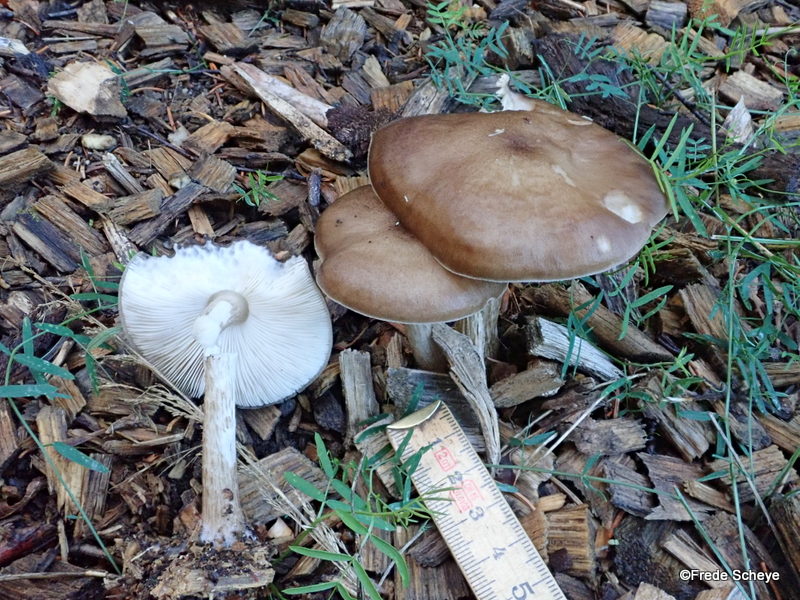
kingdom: Fungi
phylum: Basidiomycota
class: Agaricomycetes
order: Agaricales
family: Pluteaceae
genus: Pluteus
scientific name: Pluteus cervinus
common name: sodfarvet skærmhat
